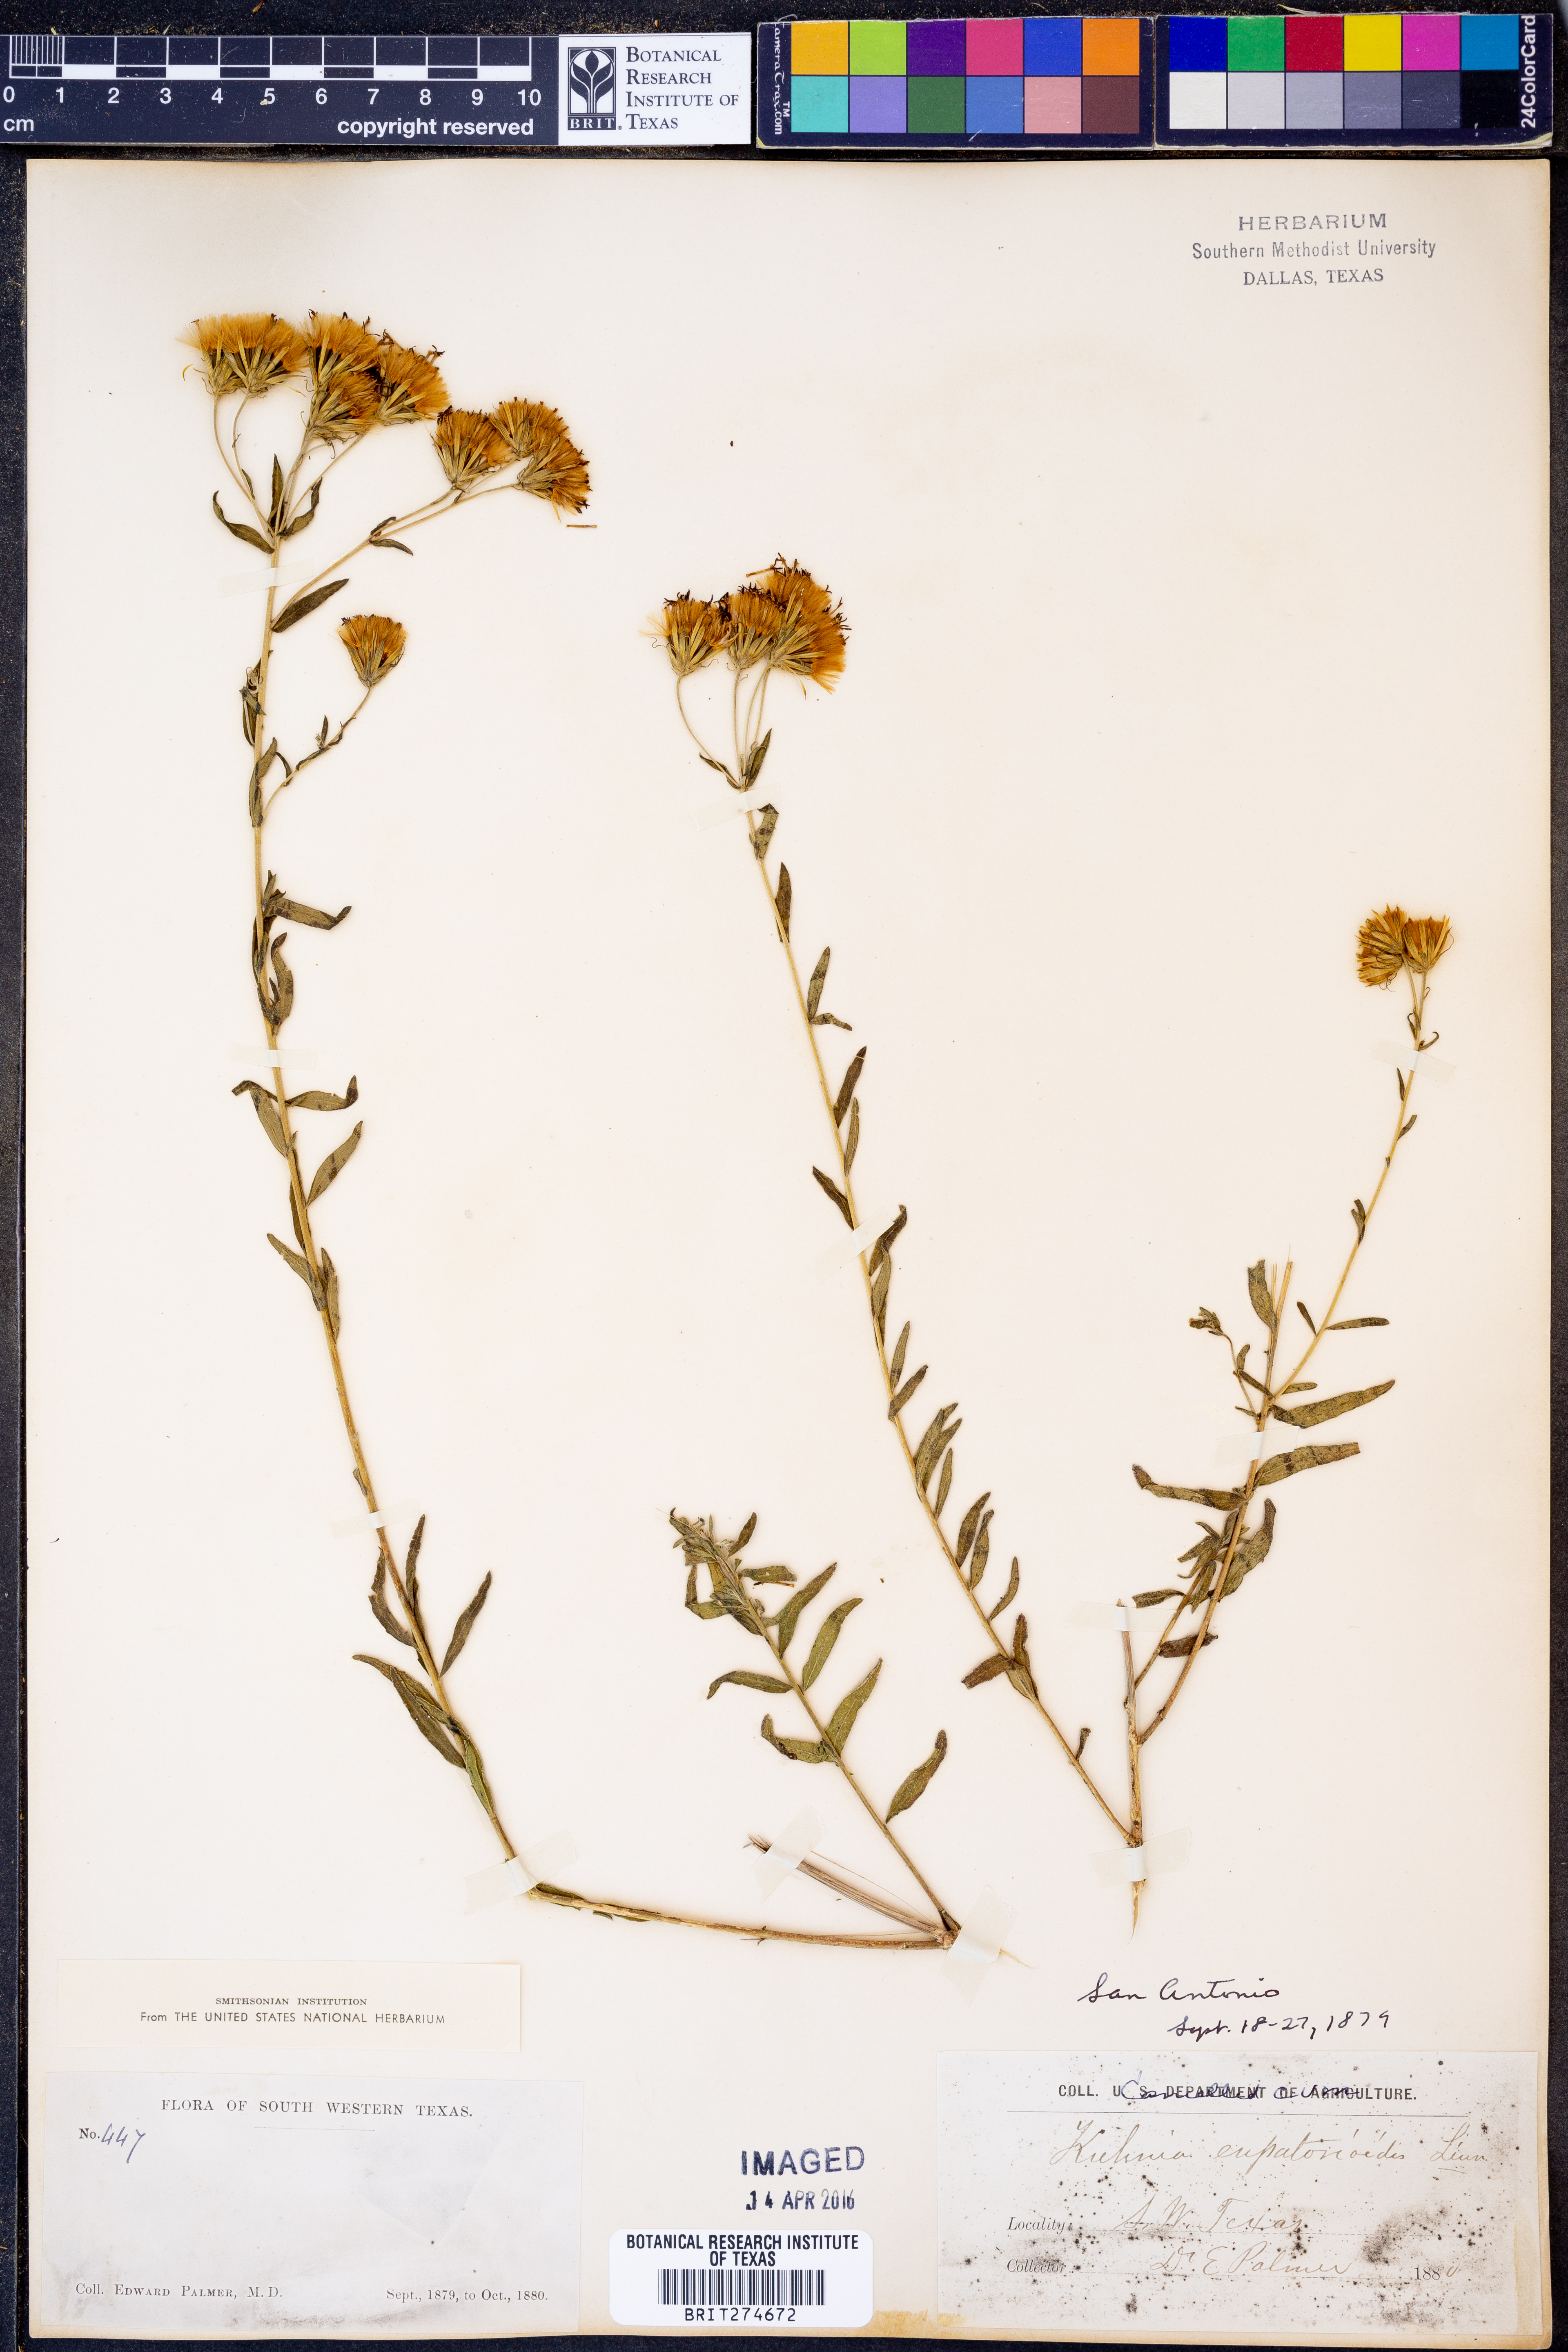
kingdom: Plantae
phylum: Tracheophyta
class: Magnoliopsida
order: Asterales
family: Asteraceae
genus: Brickellia
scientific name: Brickellia eupatorioides
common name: False boneset
